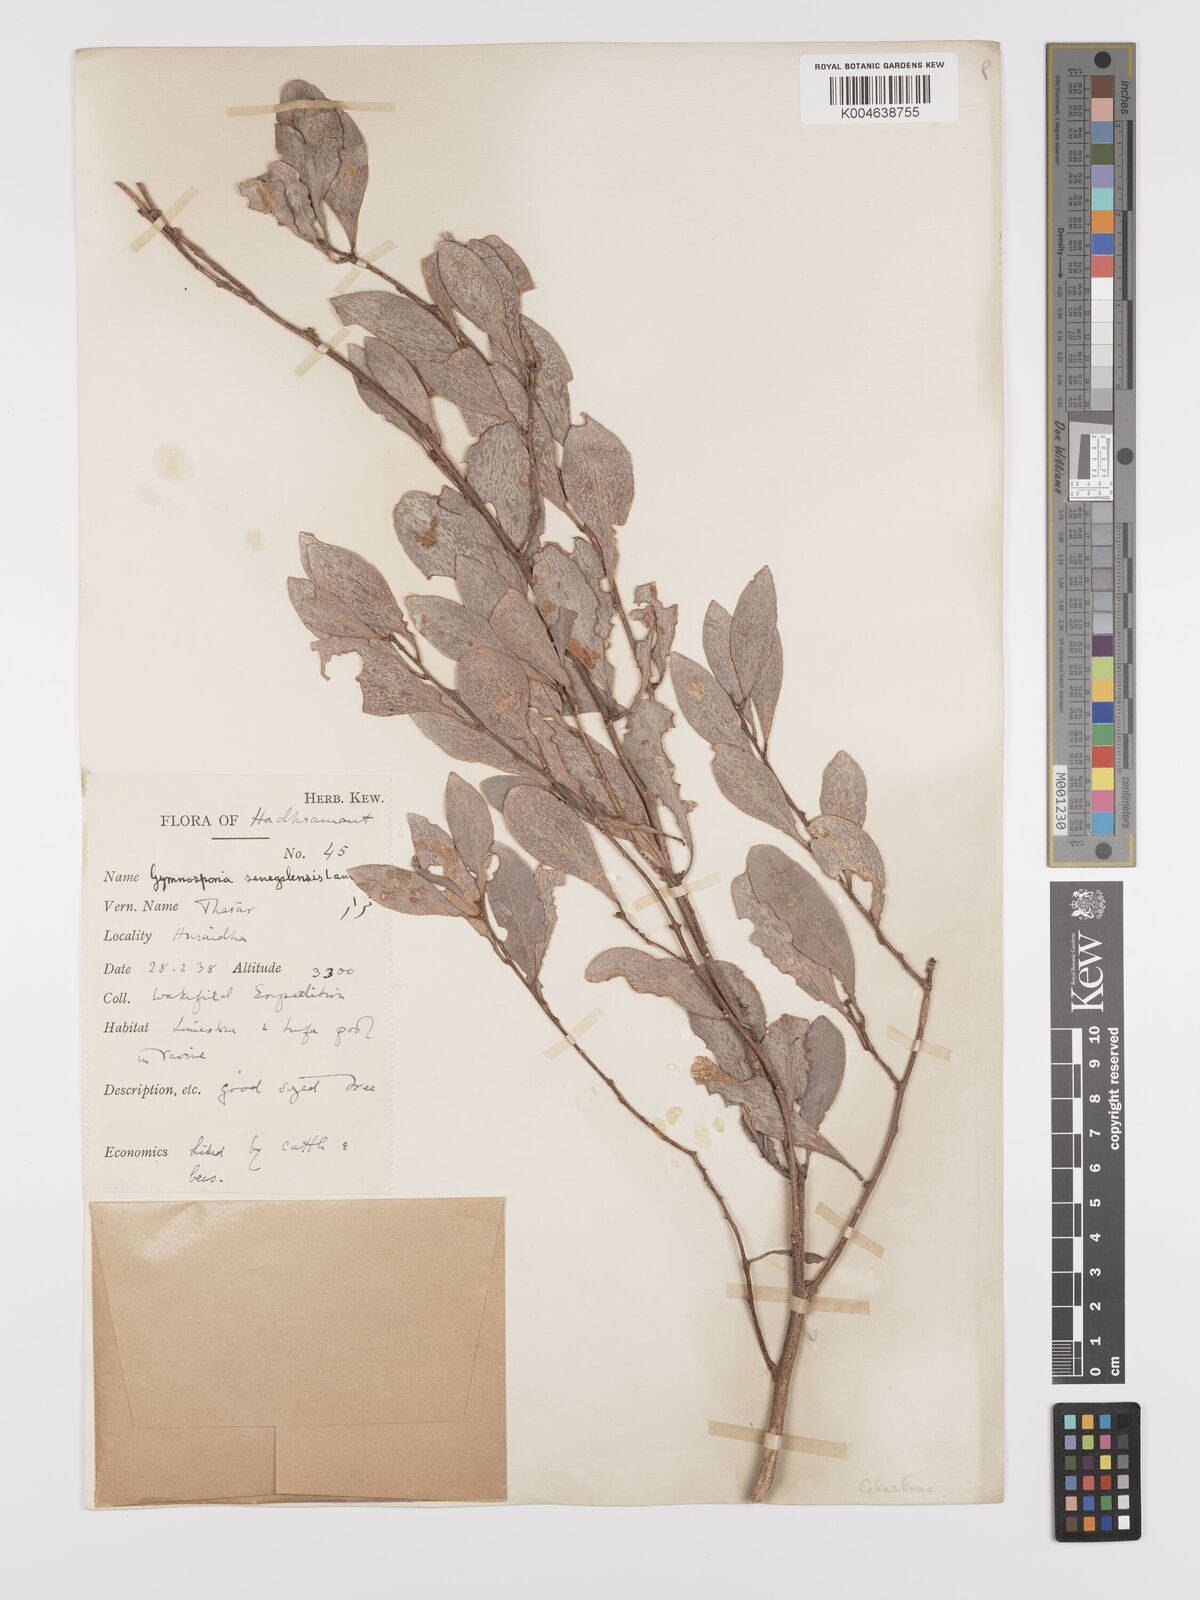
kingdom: Plantae
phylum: Tracheophyta
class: Magnoliopsida
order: Celastrales
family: Celastraceae
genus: Gymnosporia
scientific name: Gymnosporia senegalensis
